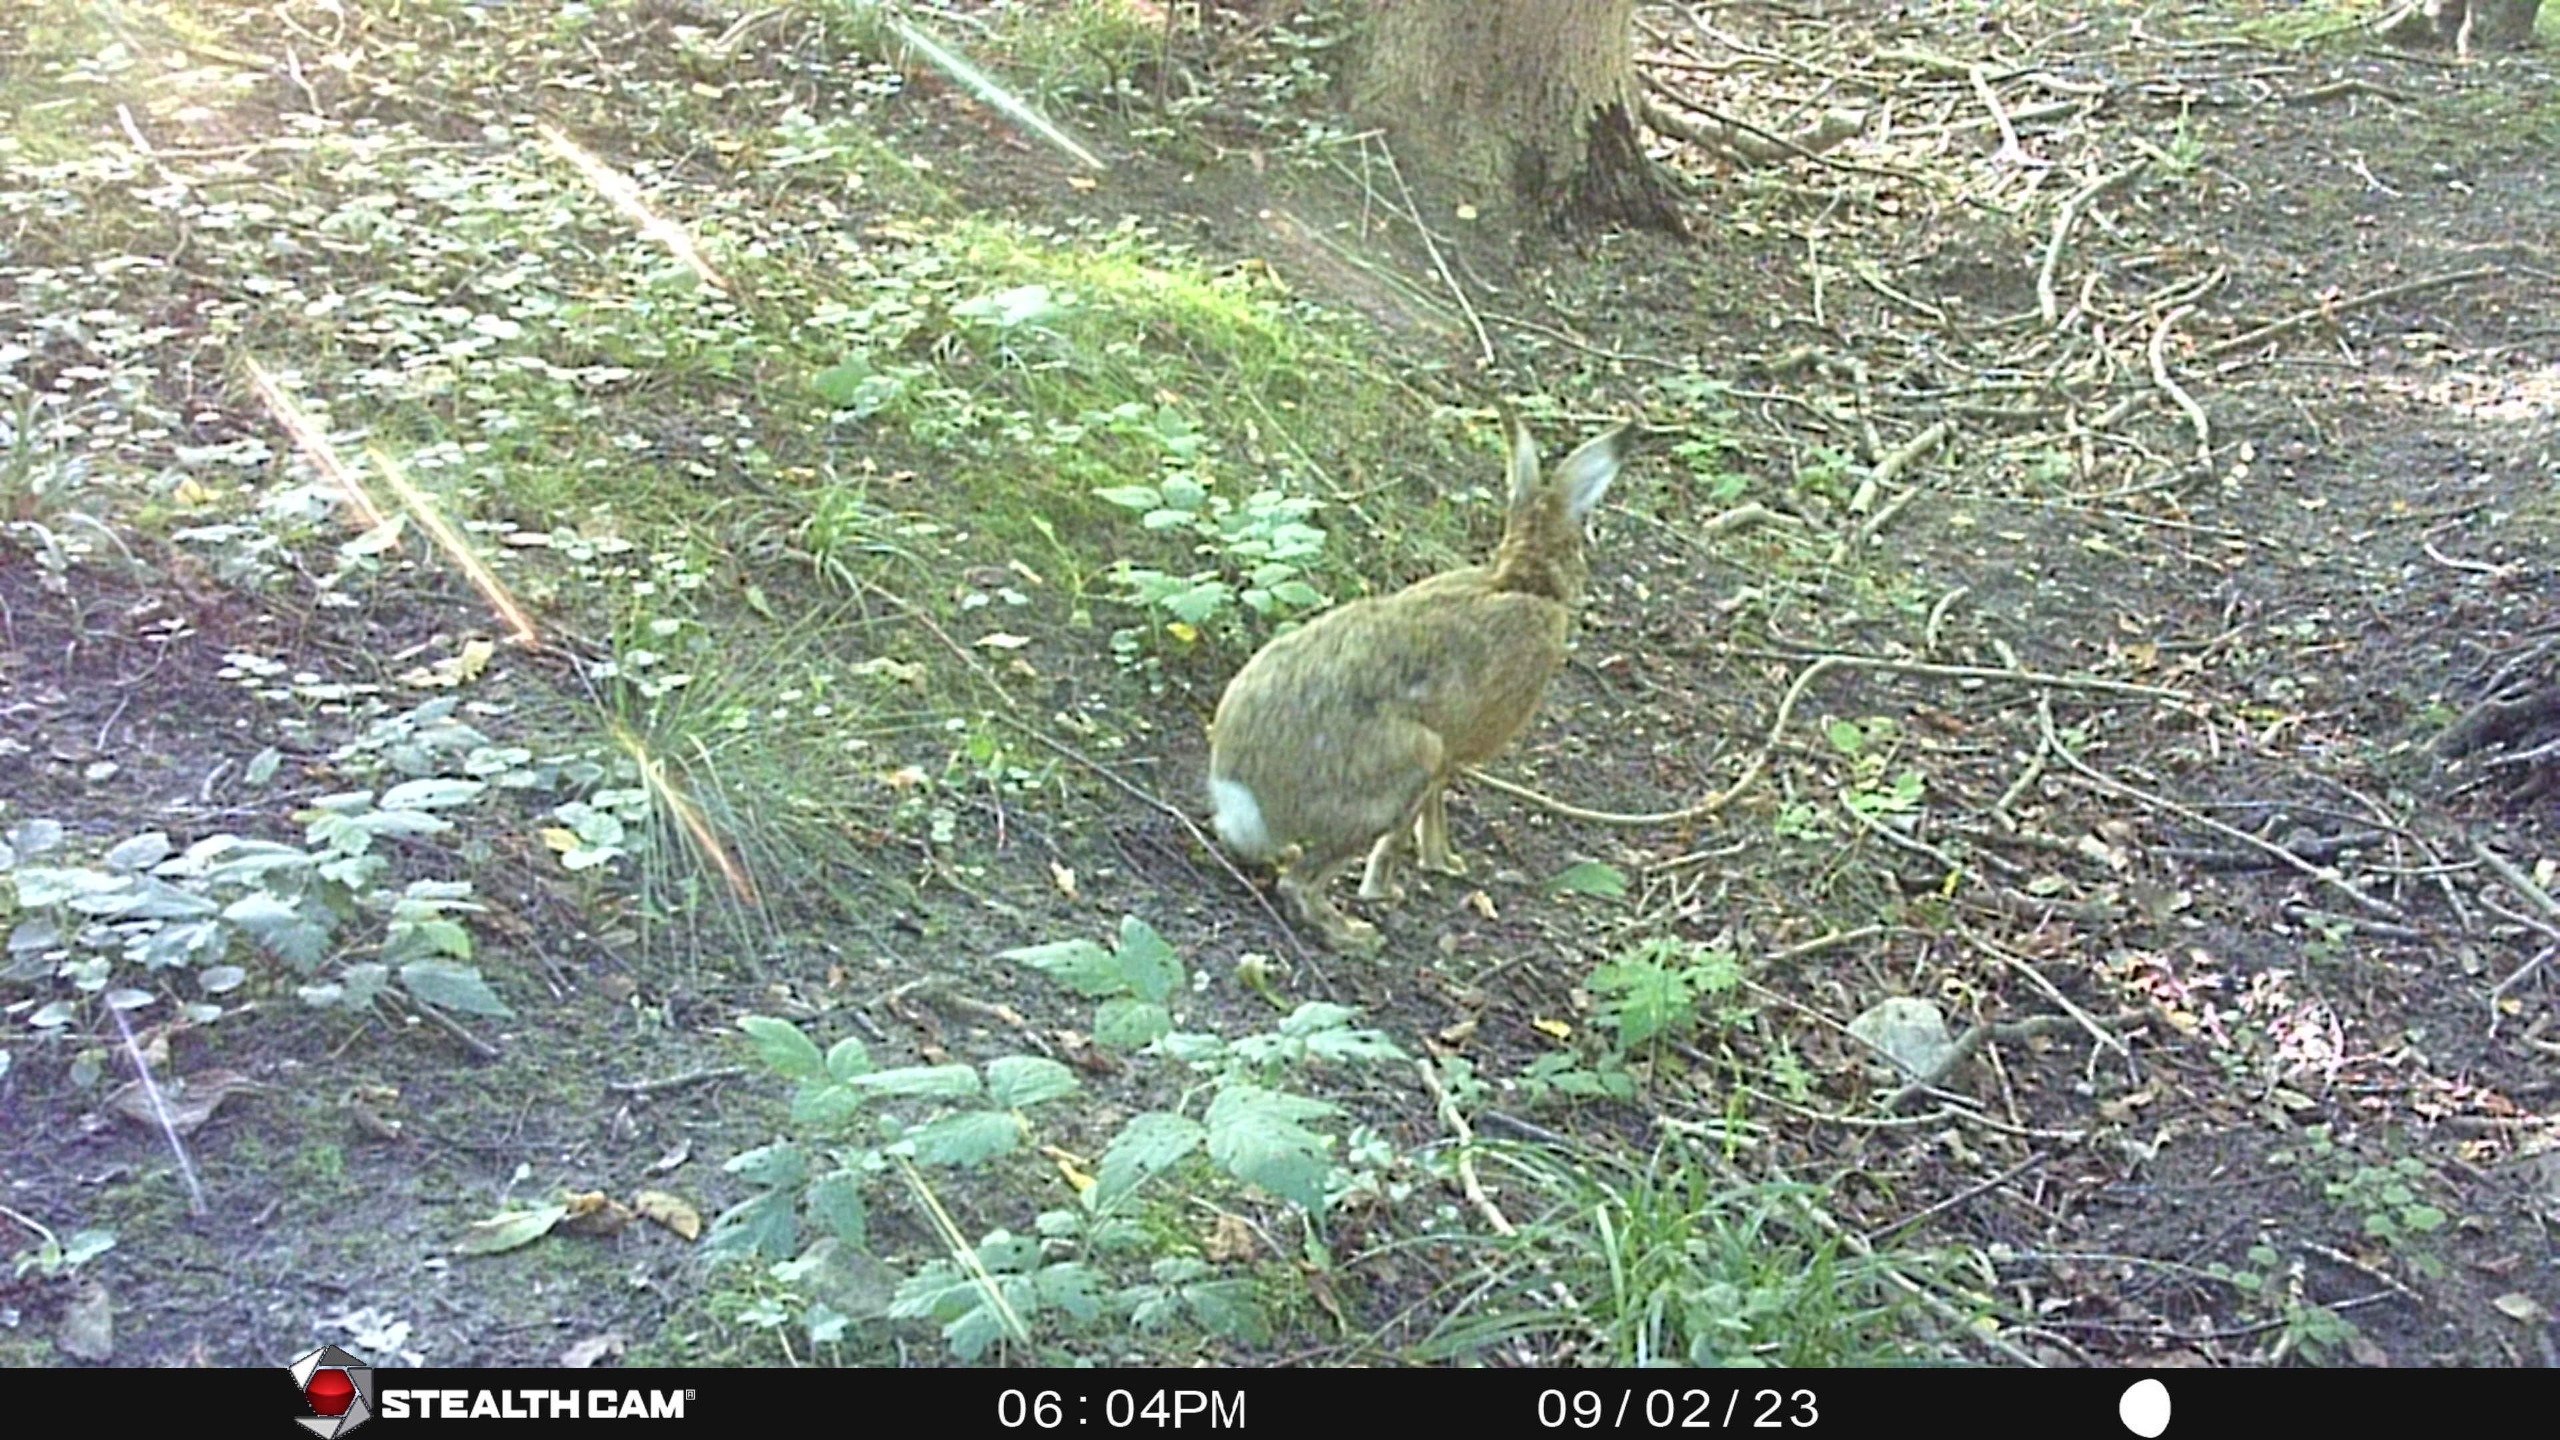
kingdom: Animalia
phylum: Chordata
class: Mammalia
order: Lagomorpha
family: Leporidae
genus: Lepus
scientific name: Lepus europaeus
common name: Hare
